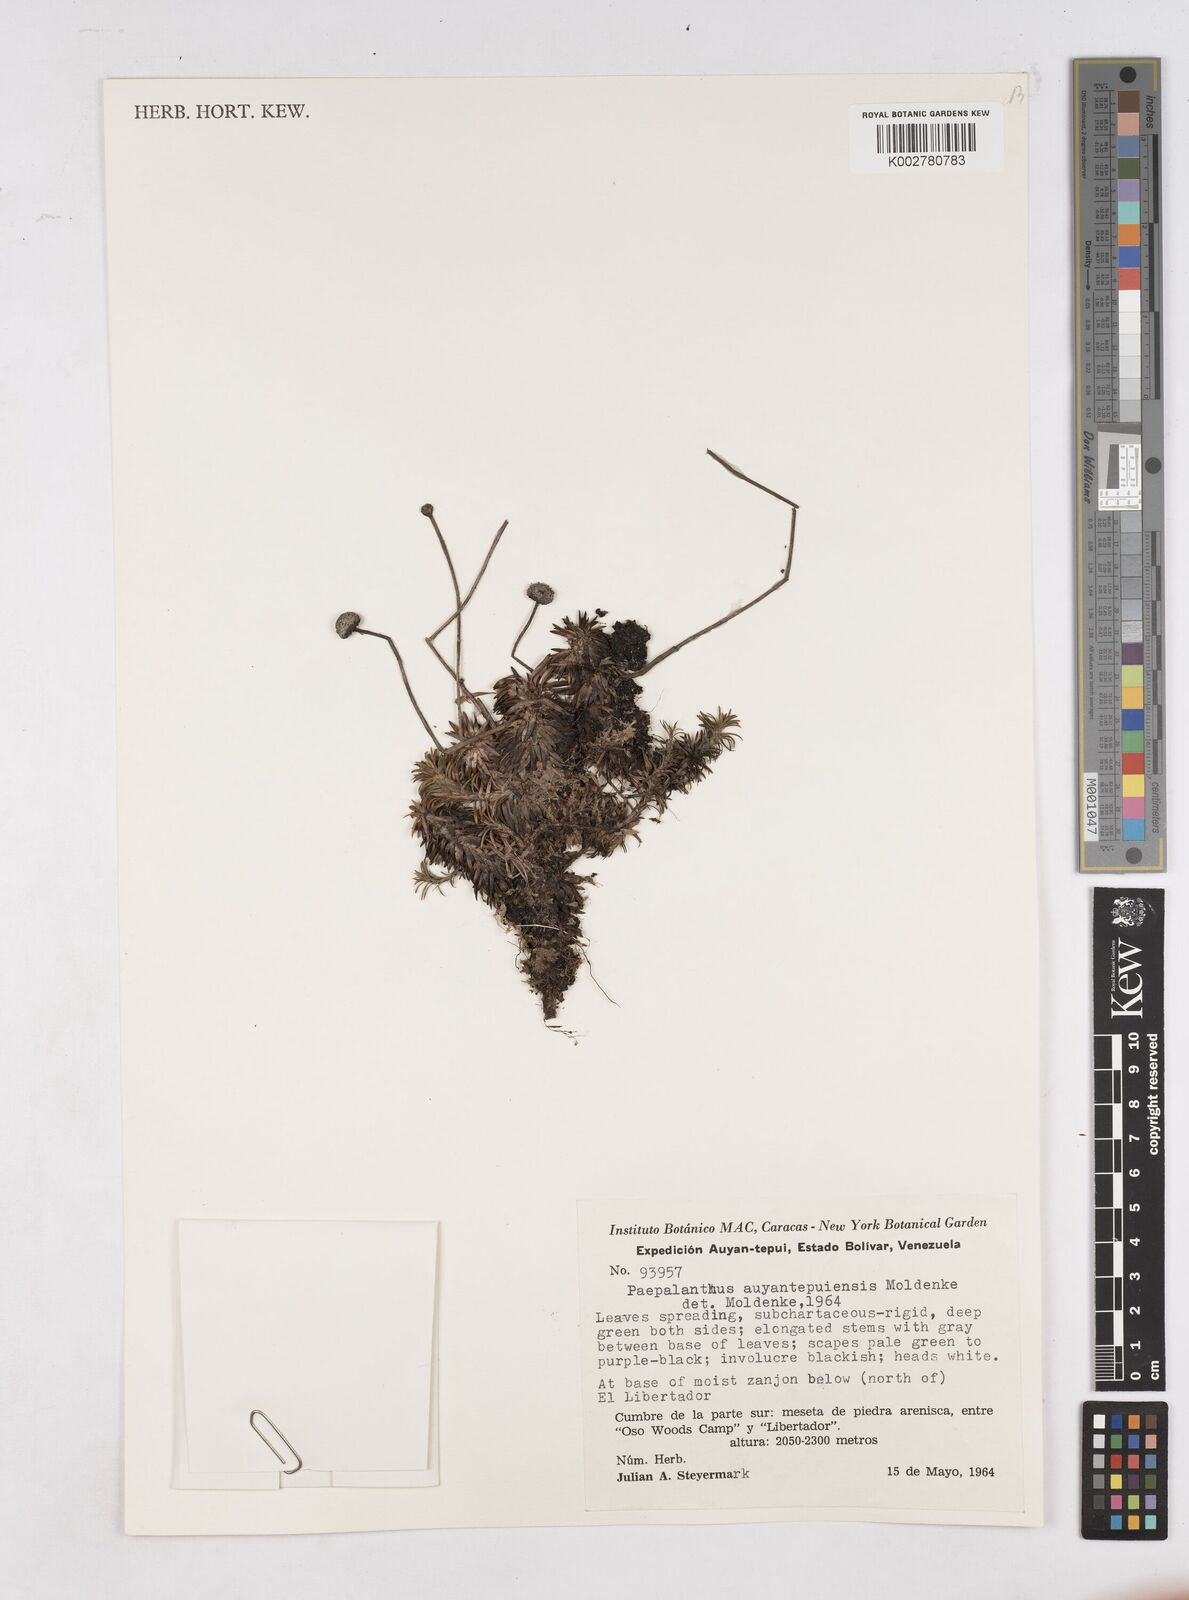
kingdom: Plantae
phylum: Tracheophyta
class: Liliopsida
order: Poales
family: Eriocaulaceae
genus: Paepalanthus
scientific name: Paepalanthus auyantepuiensis
